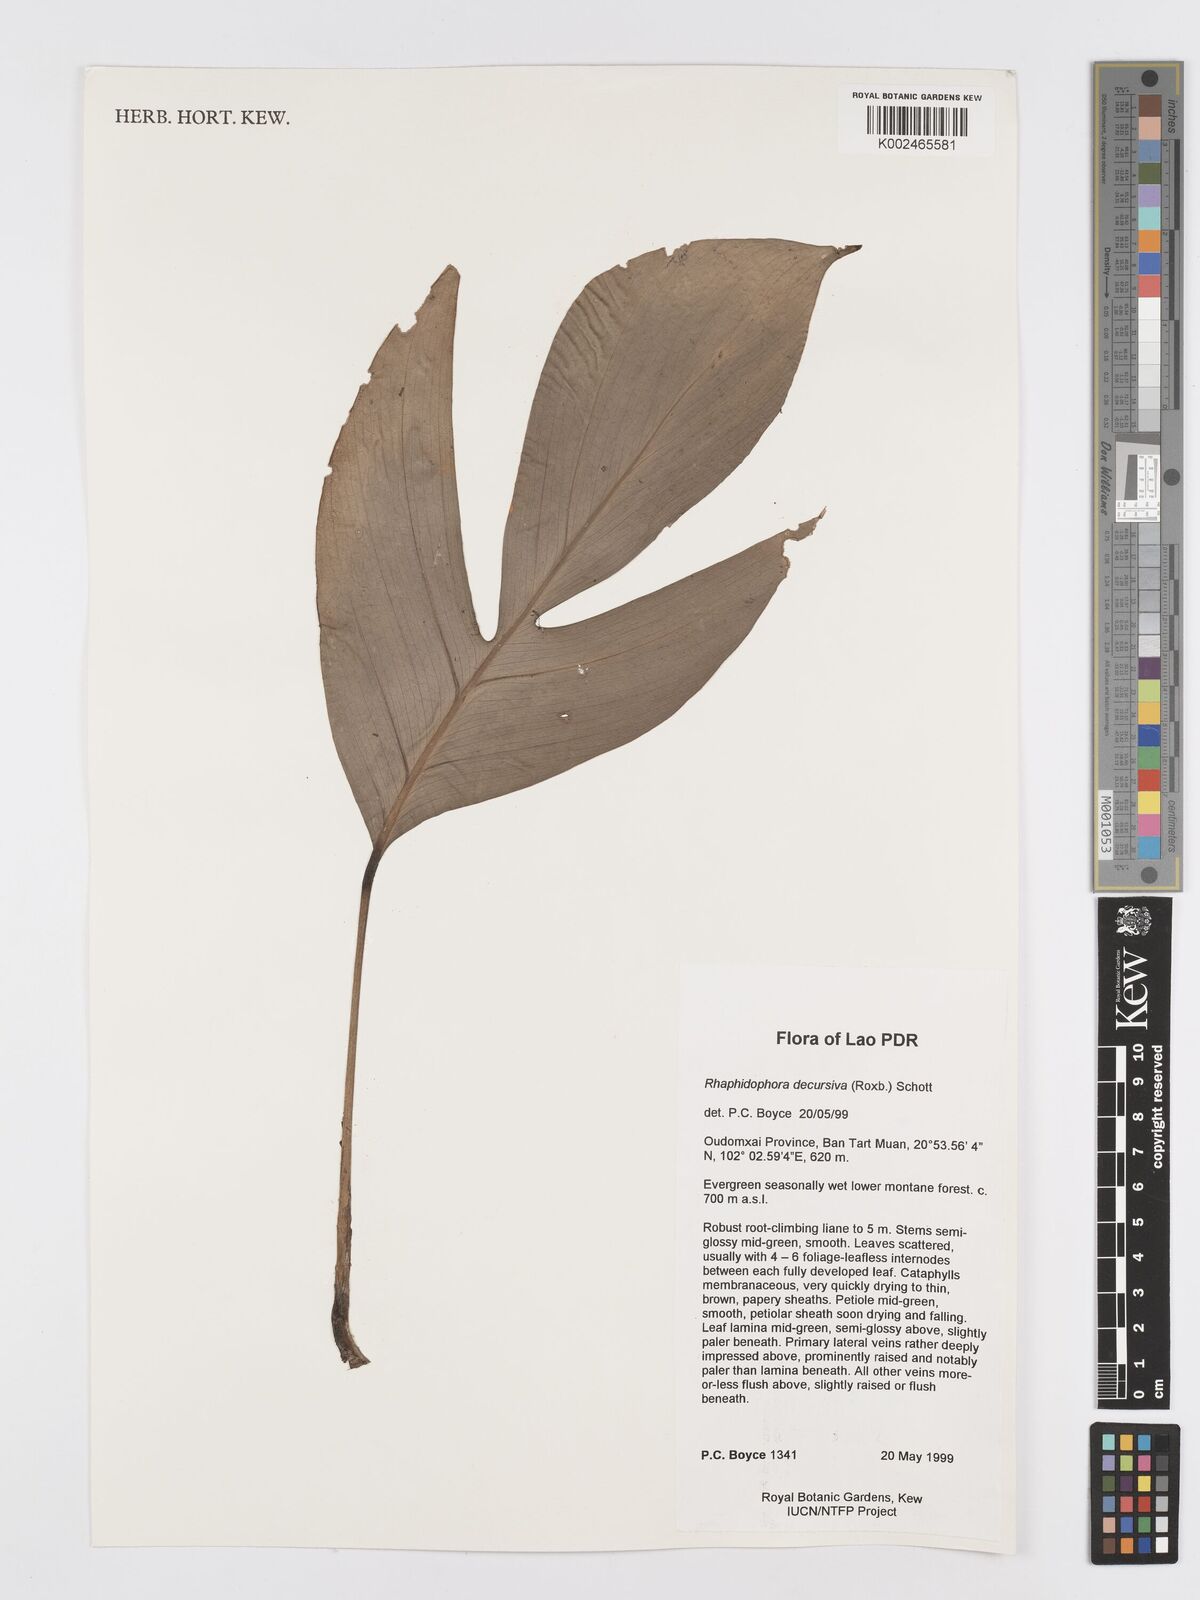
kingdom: Plantae
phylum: Tracheophyta
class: Liliopsida
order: Alismatales
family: Araceae
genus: Rhaphidophora
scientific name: Rhaphidophora decursiva
